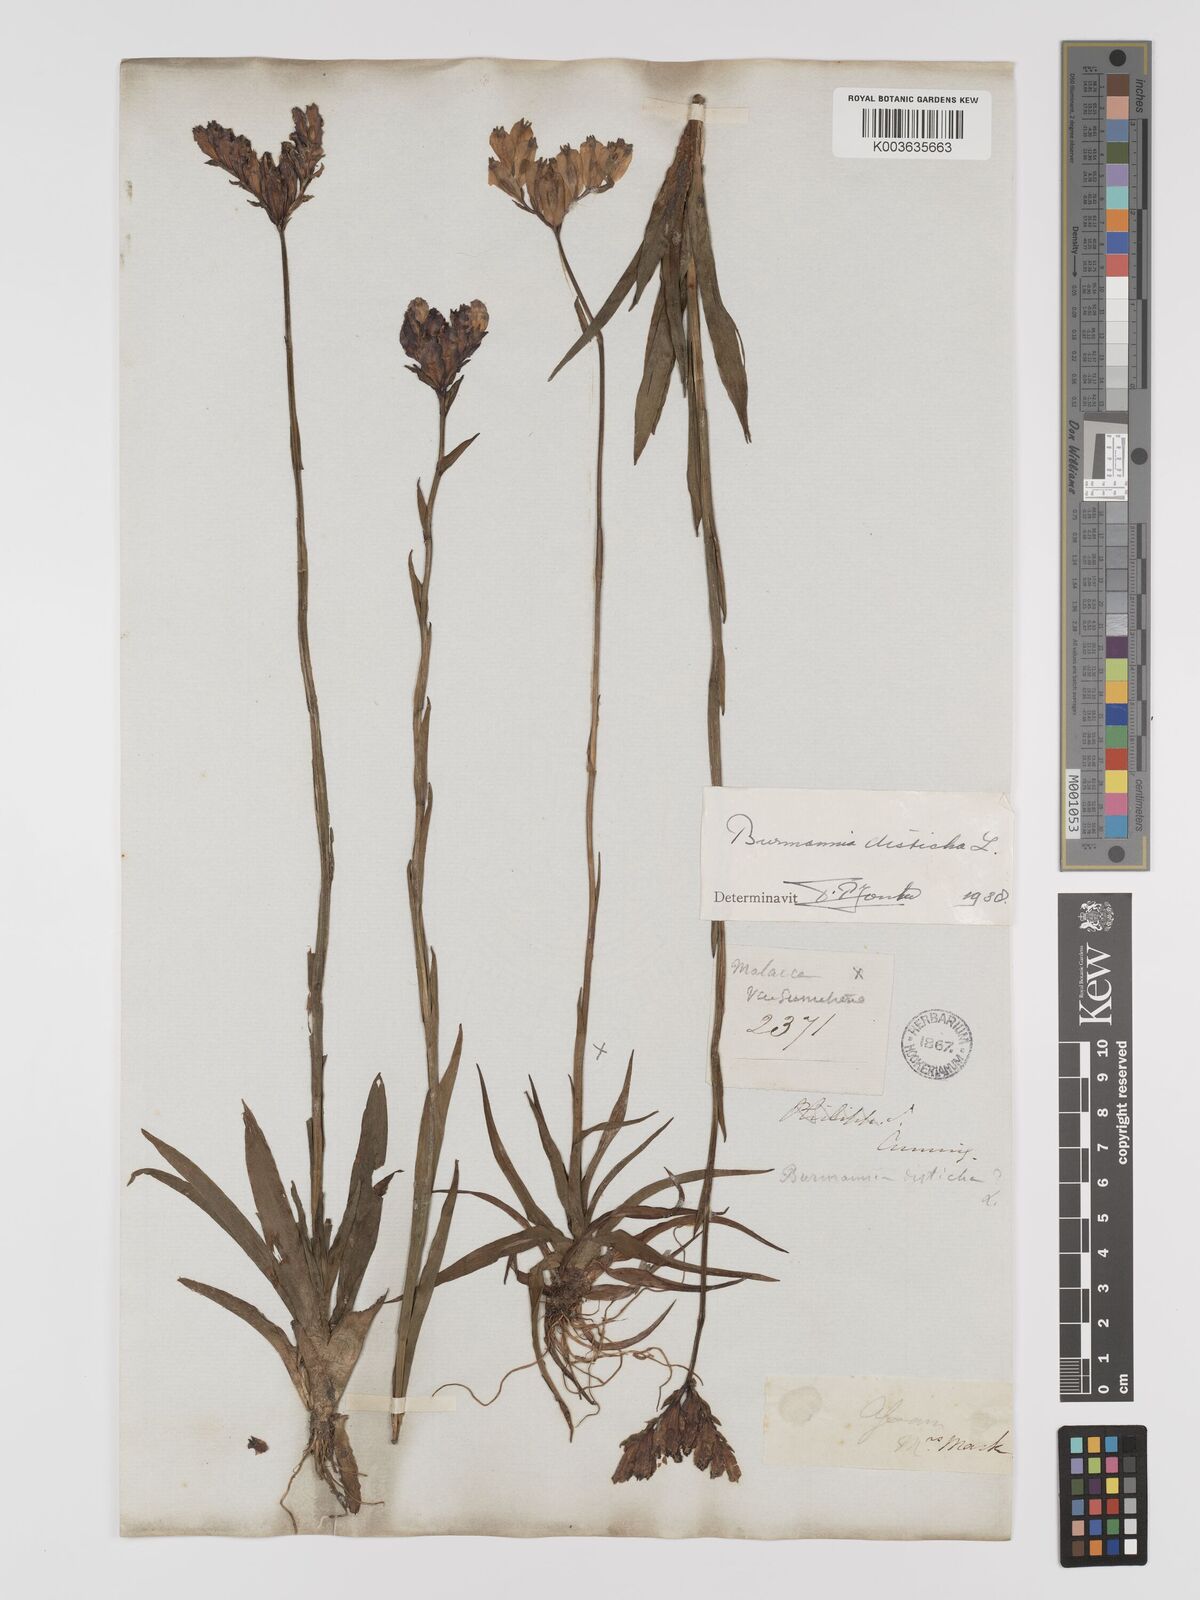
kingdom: Plantae
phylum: Tracheophyta
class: Liliopsida
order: Dioscoreales
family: Burmanniaceae
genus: Burmannia
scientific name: Burmannia disticha
